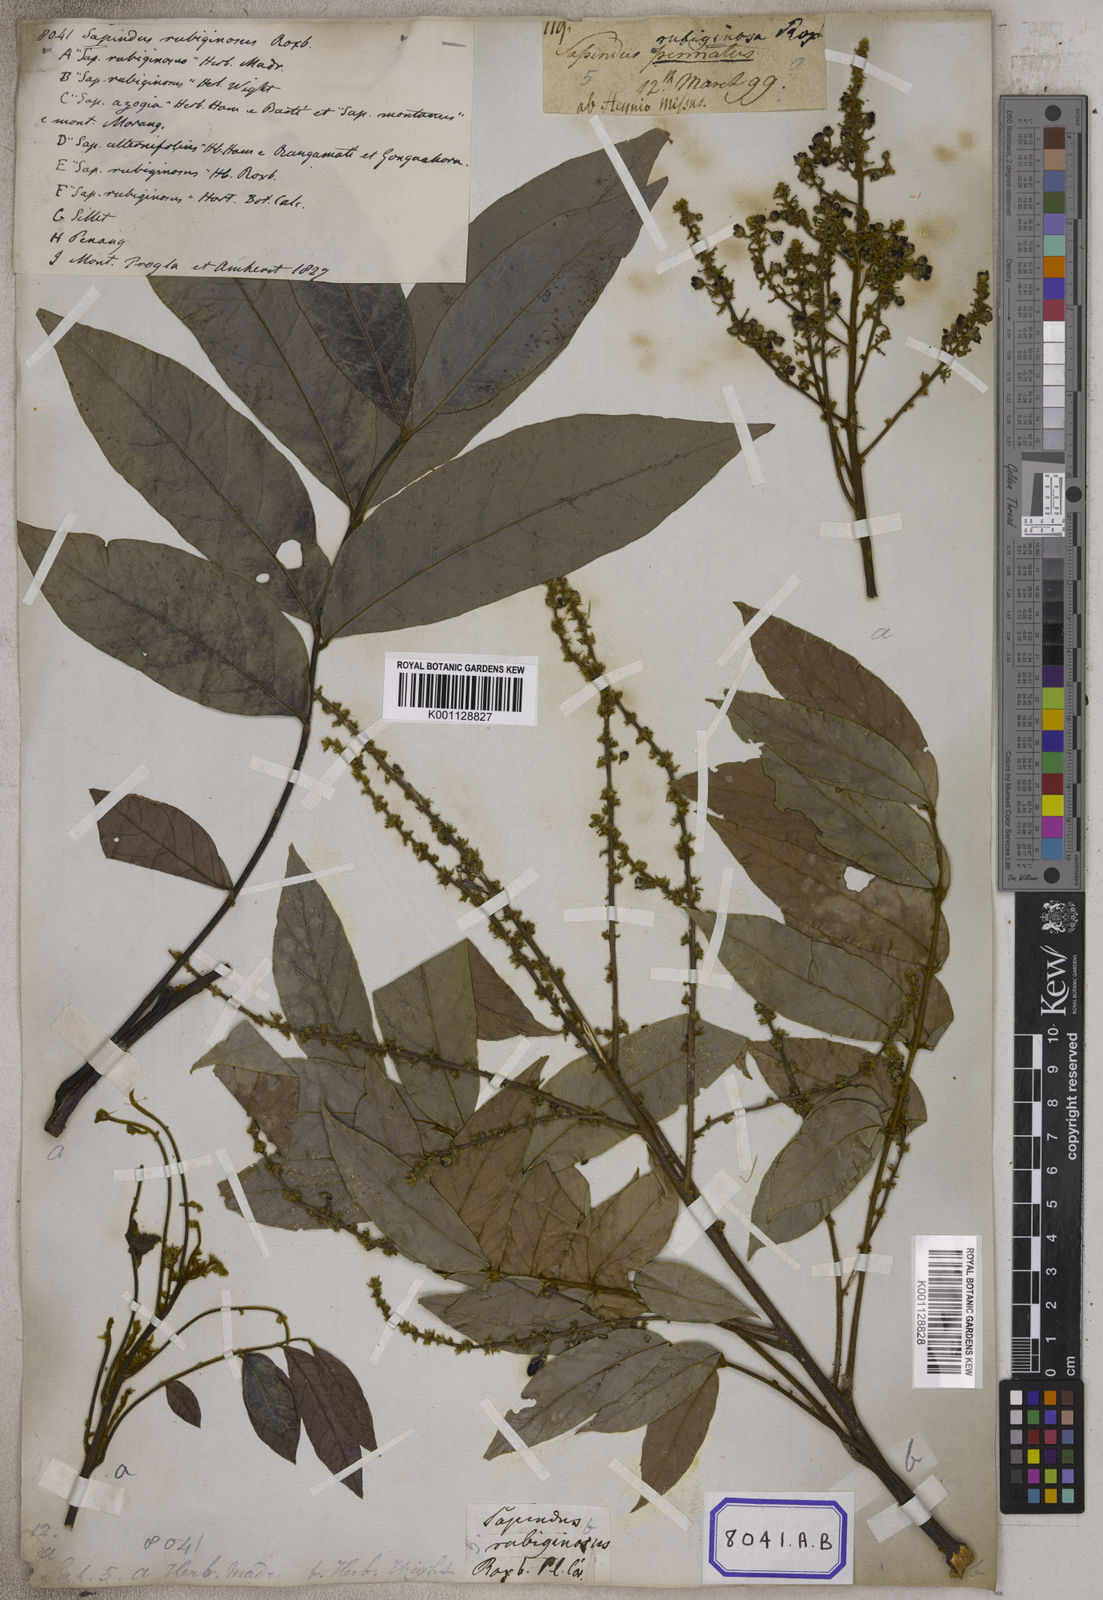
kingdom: Plantae
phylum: Tracheophyta
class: Magnoliopsida
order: Sapindales
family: Sapindaceae
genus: Lepisanthes
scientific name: Lepisanthes rubiginosa
